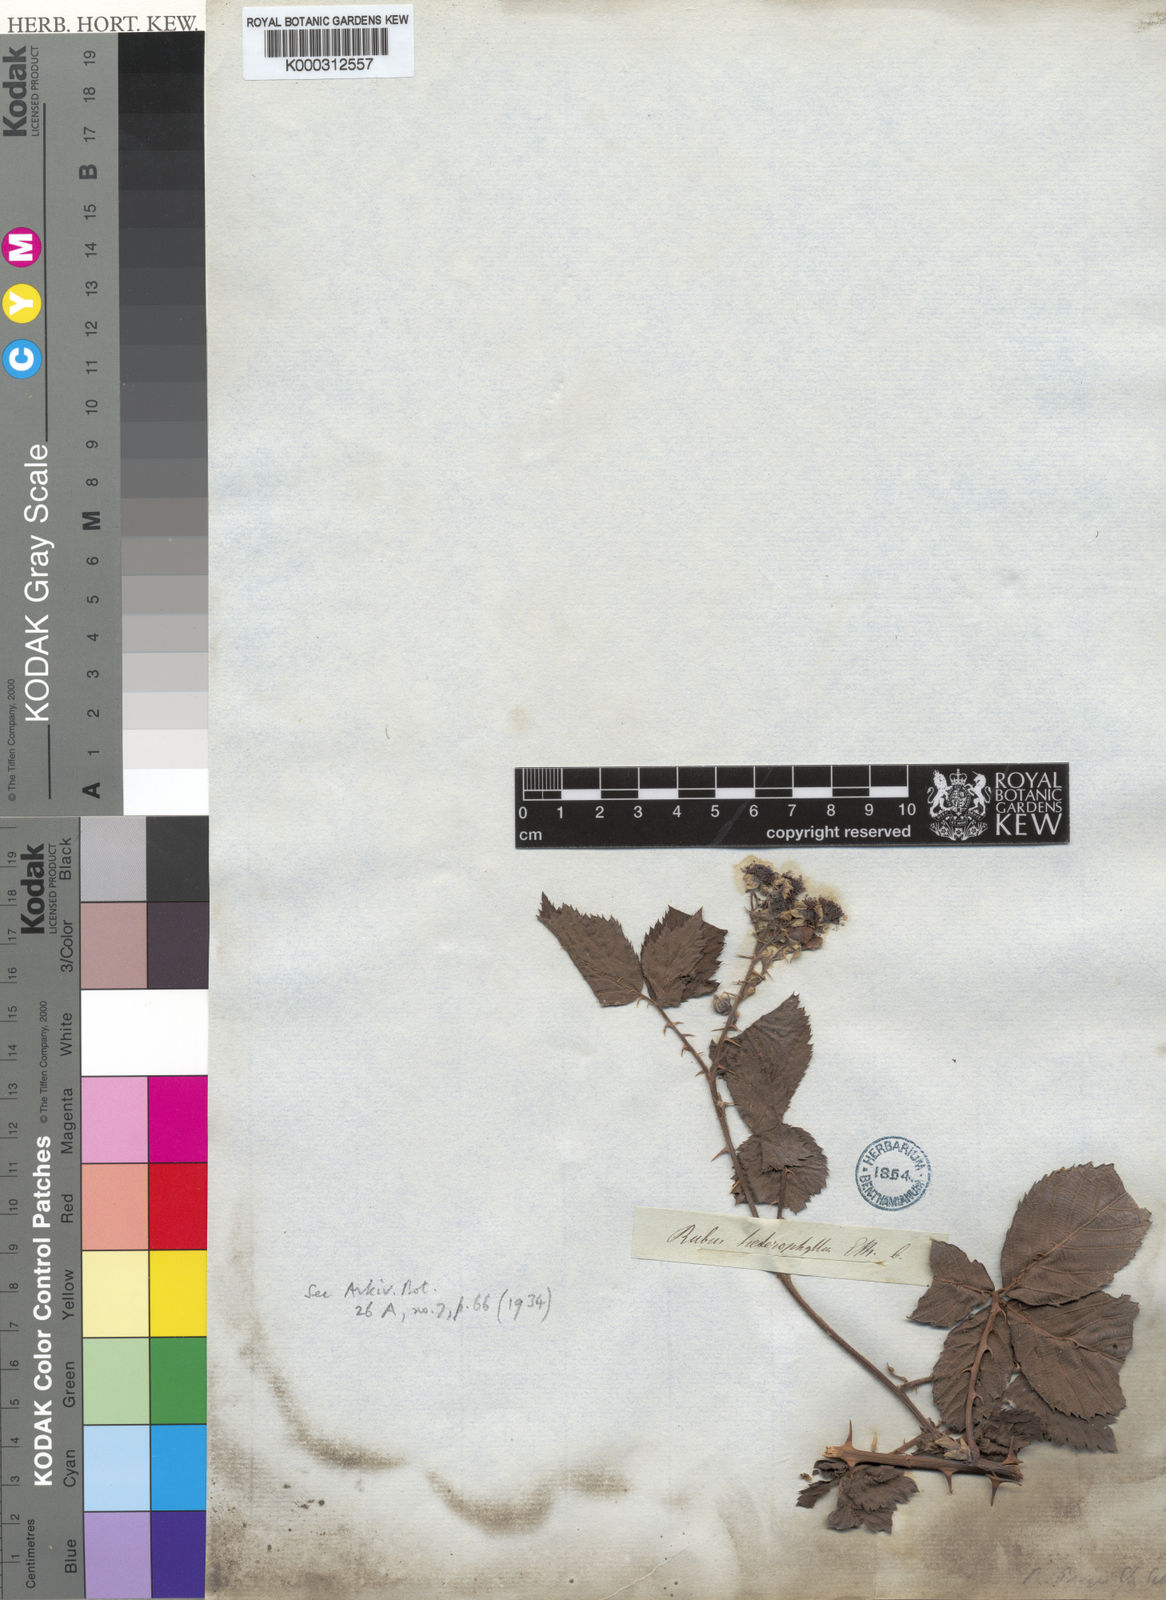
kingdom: Plantae
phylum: Tracheophyta
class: Magnoliopsida
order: Rosales
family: Rosaceae
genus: Rubus
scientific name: Rubus
